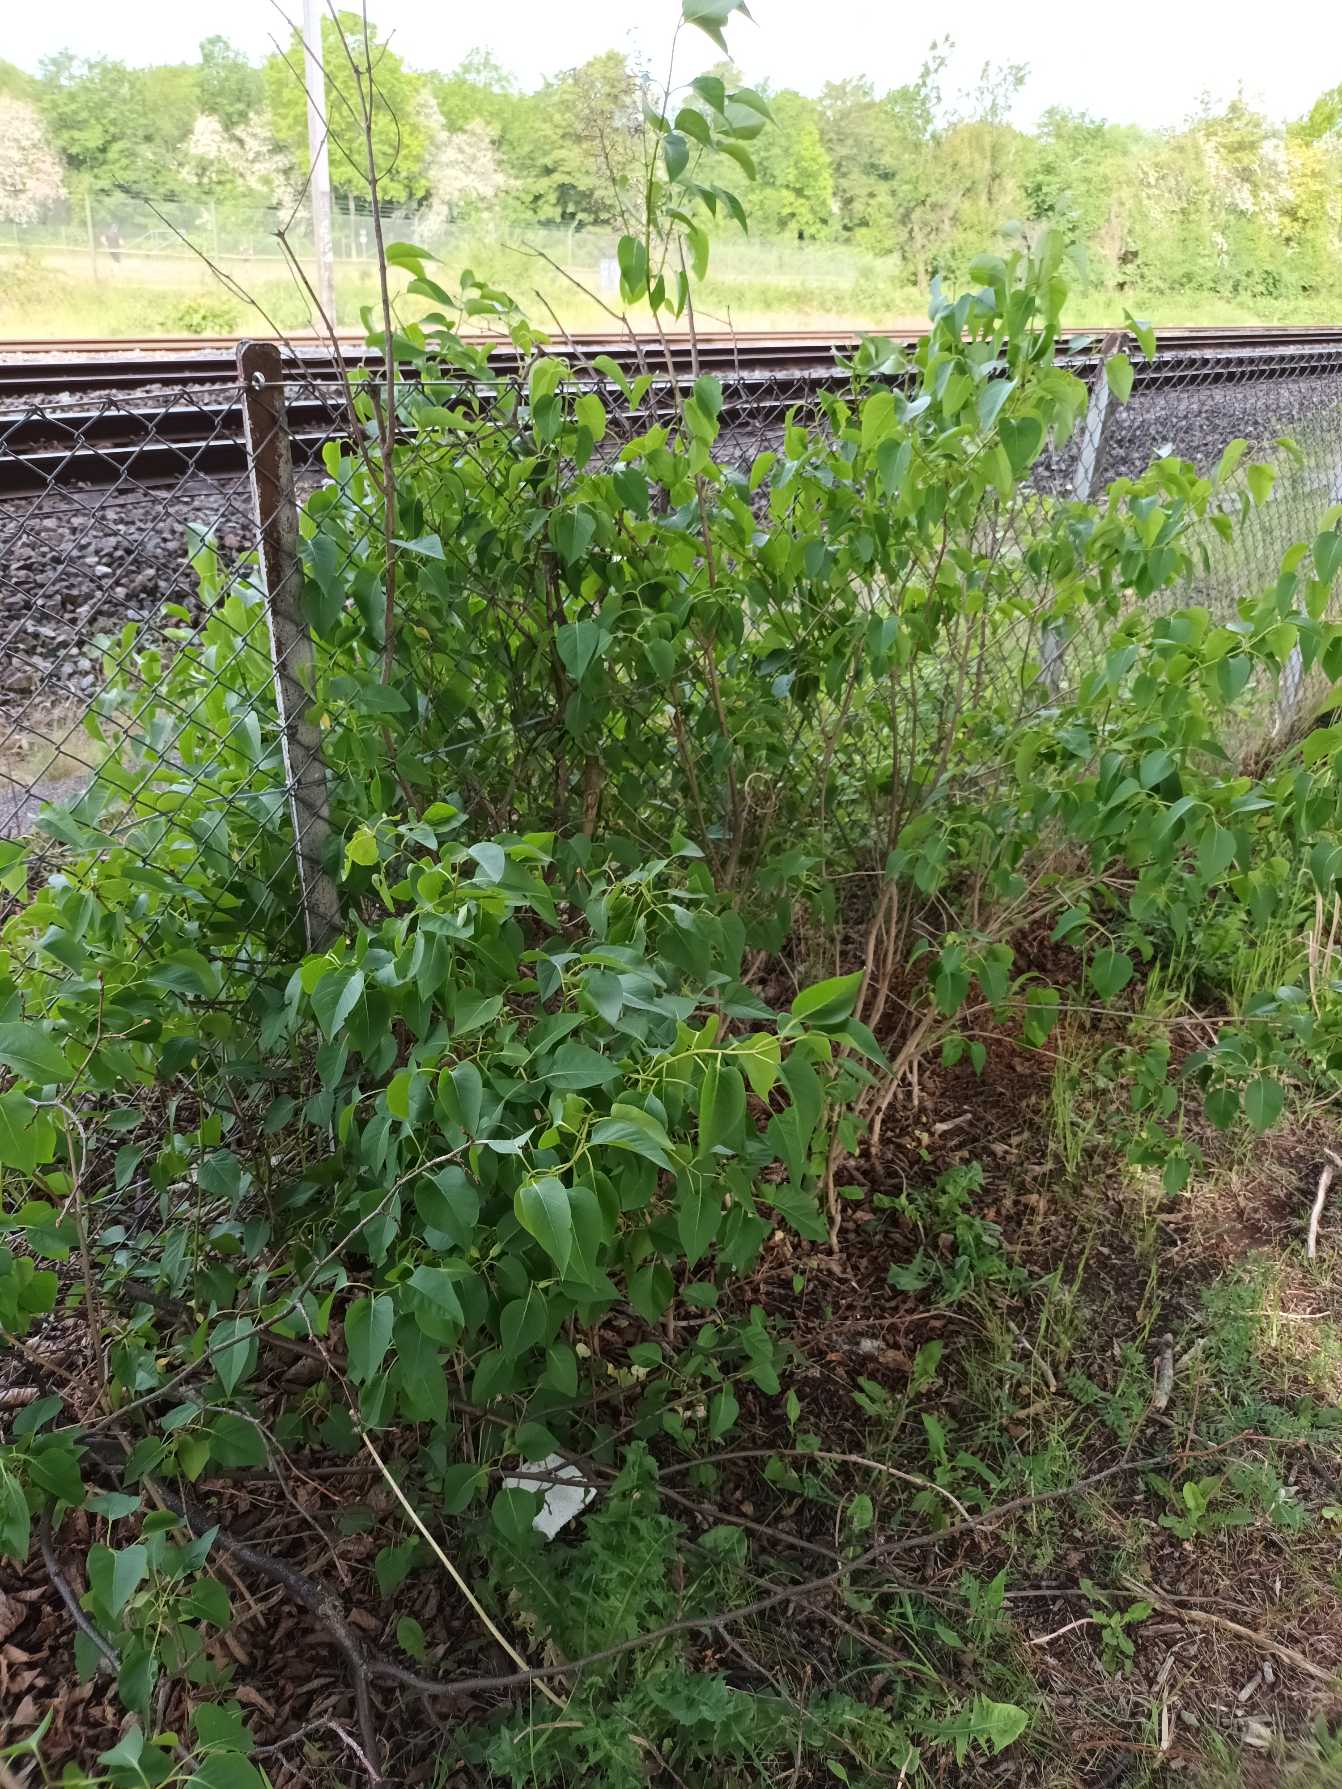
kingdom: Plantae
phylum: Tracheophyta
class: Magnoliopsida
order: Lamiales
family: Oleaceae
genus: Syringa
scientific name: Syringa vulgaris
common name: Syren
